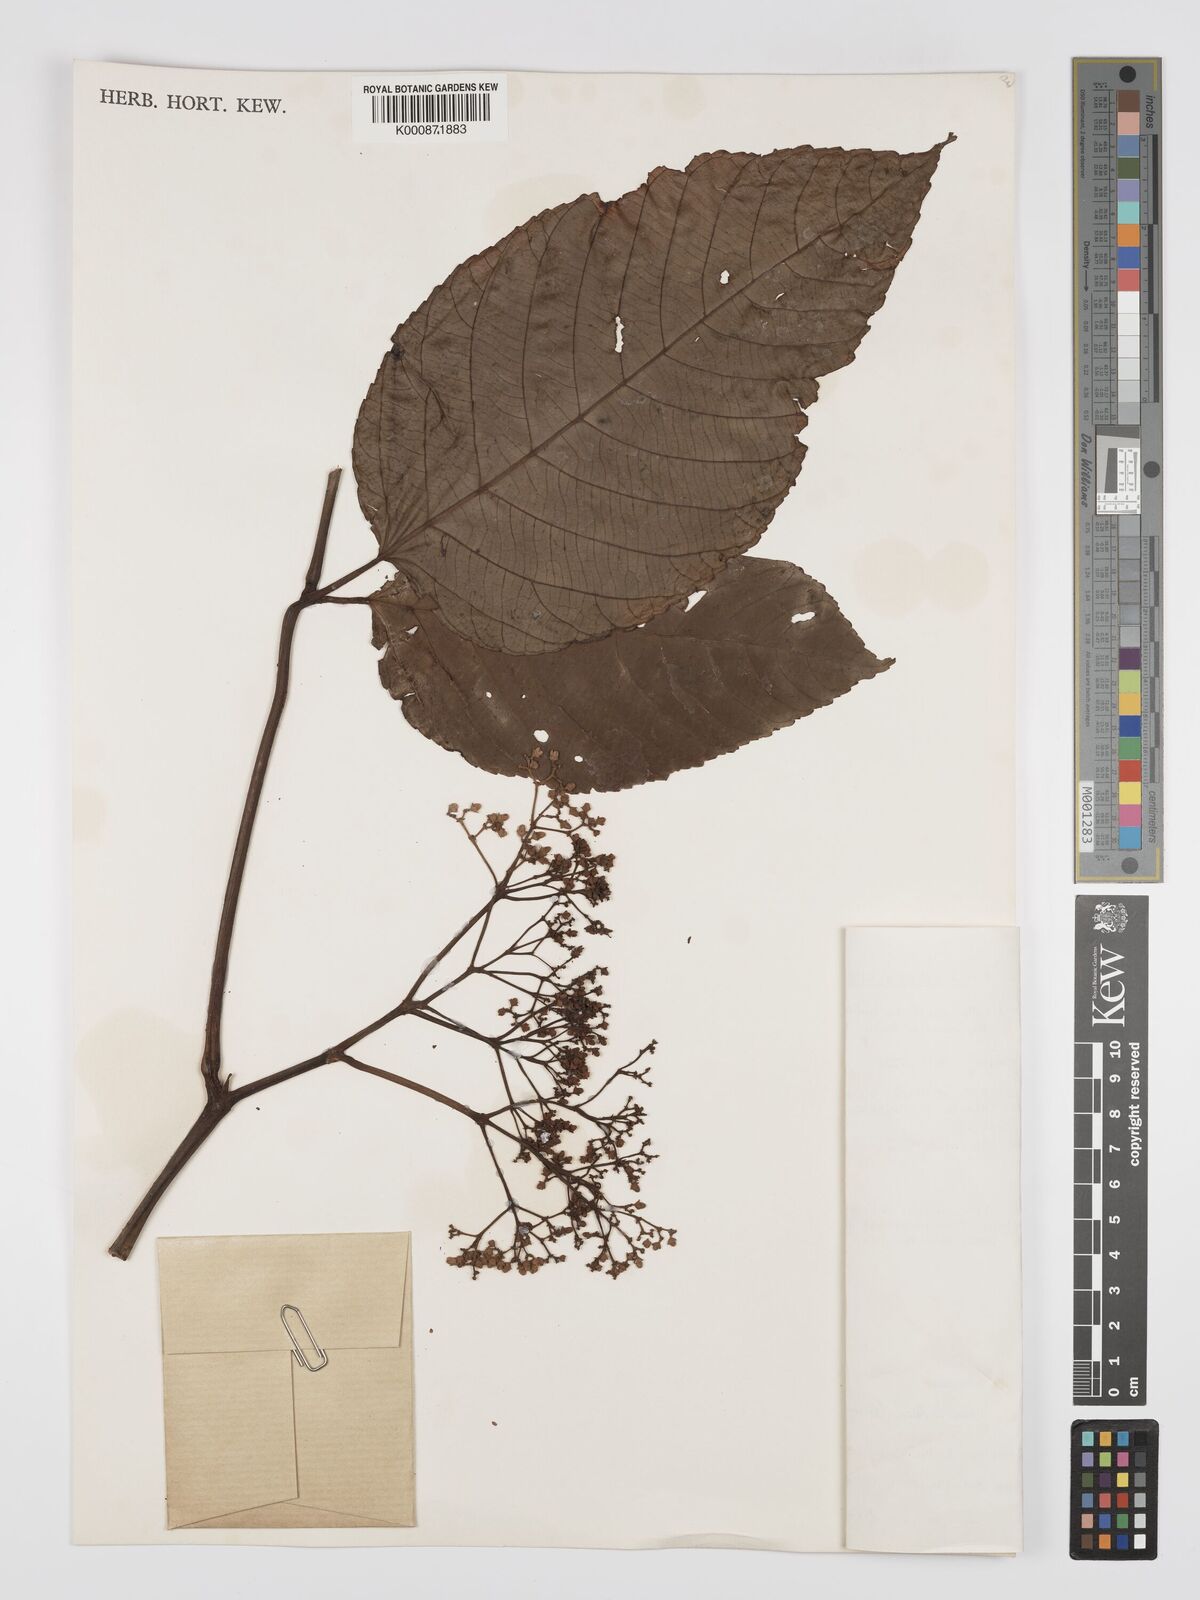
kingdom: Plantae
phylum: Tracheophyta
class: Magnoliopsida
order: Vitales
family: Vitaceae
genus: Leea
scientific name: Leea indica
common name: Bandicoot-berry
